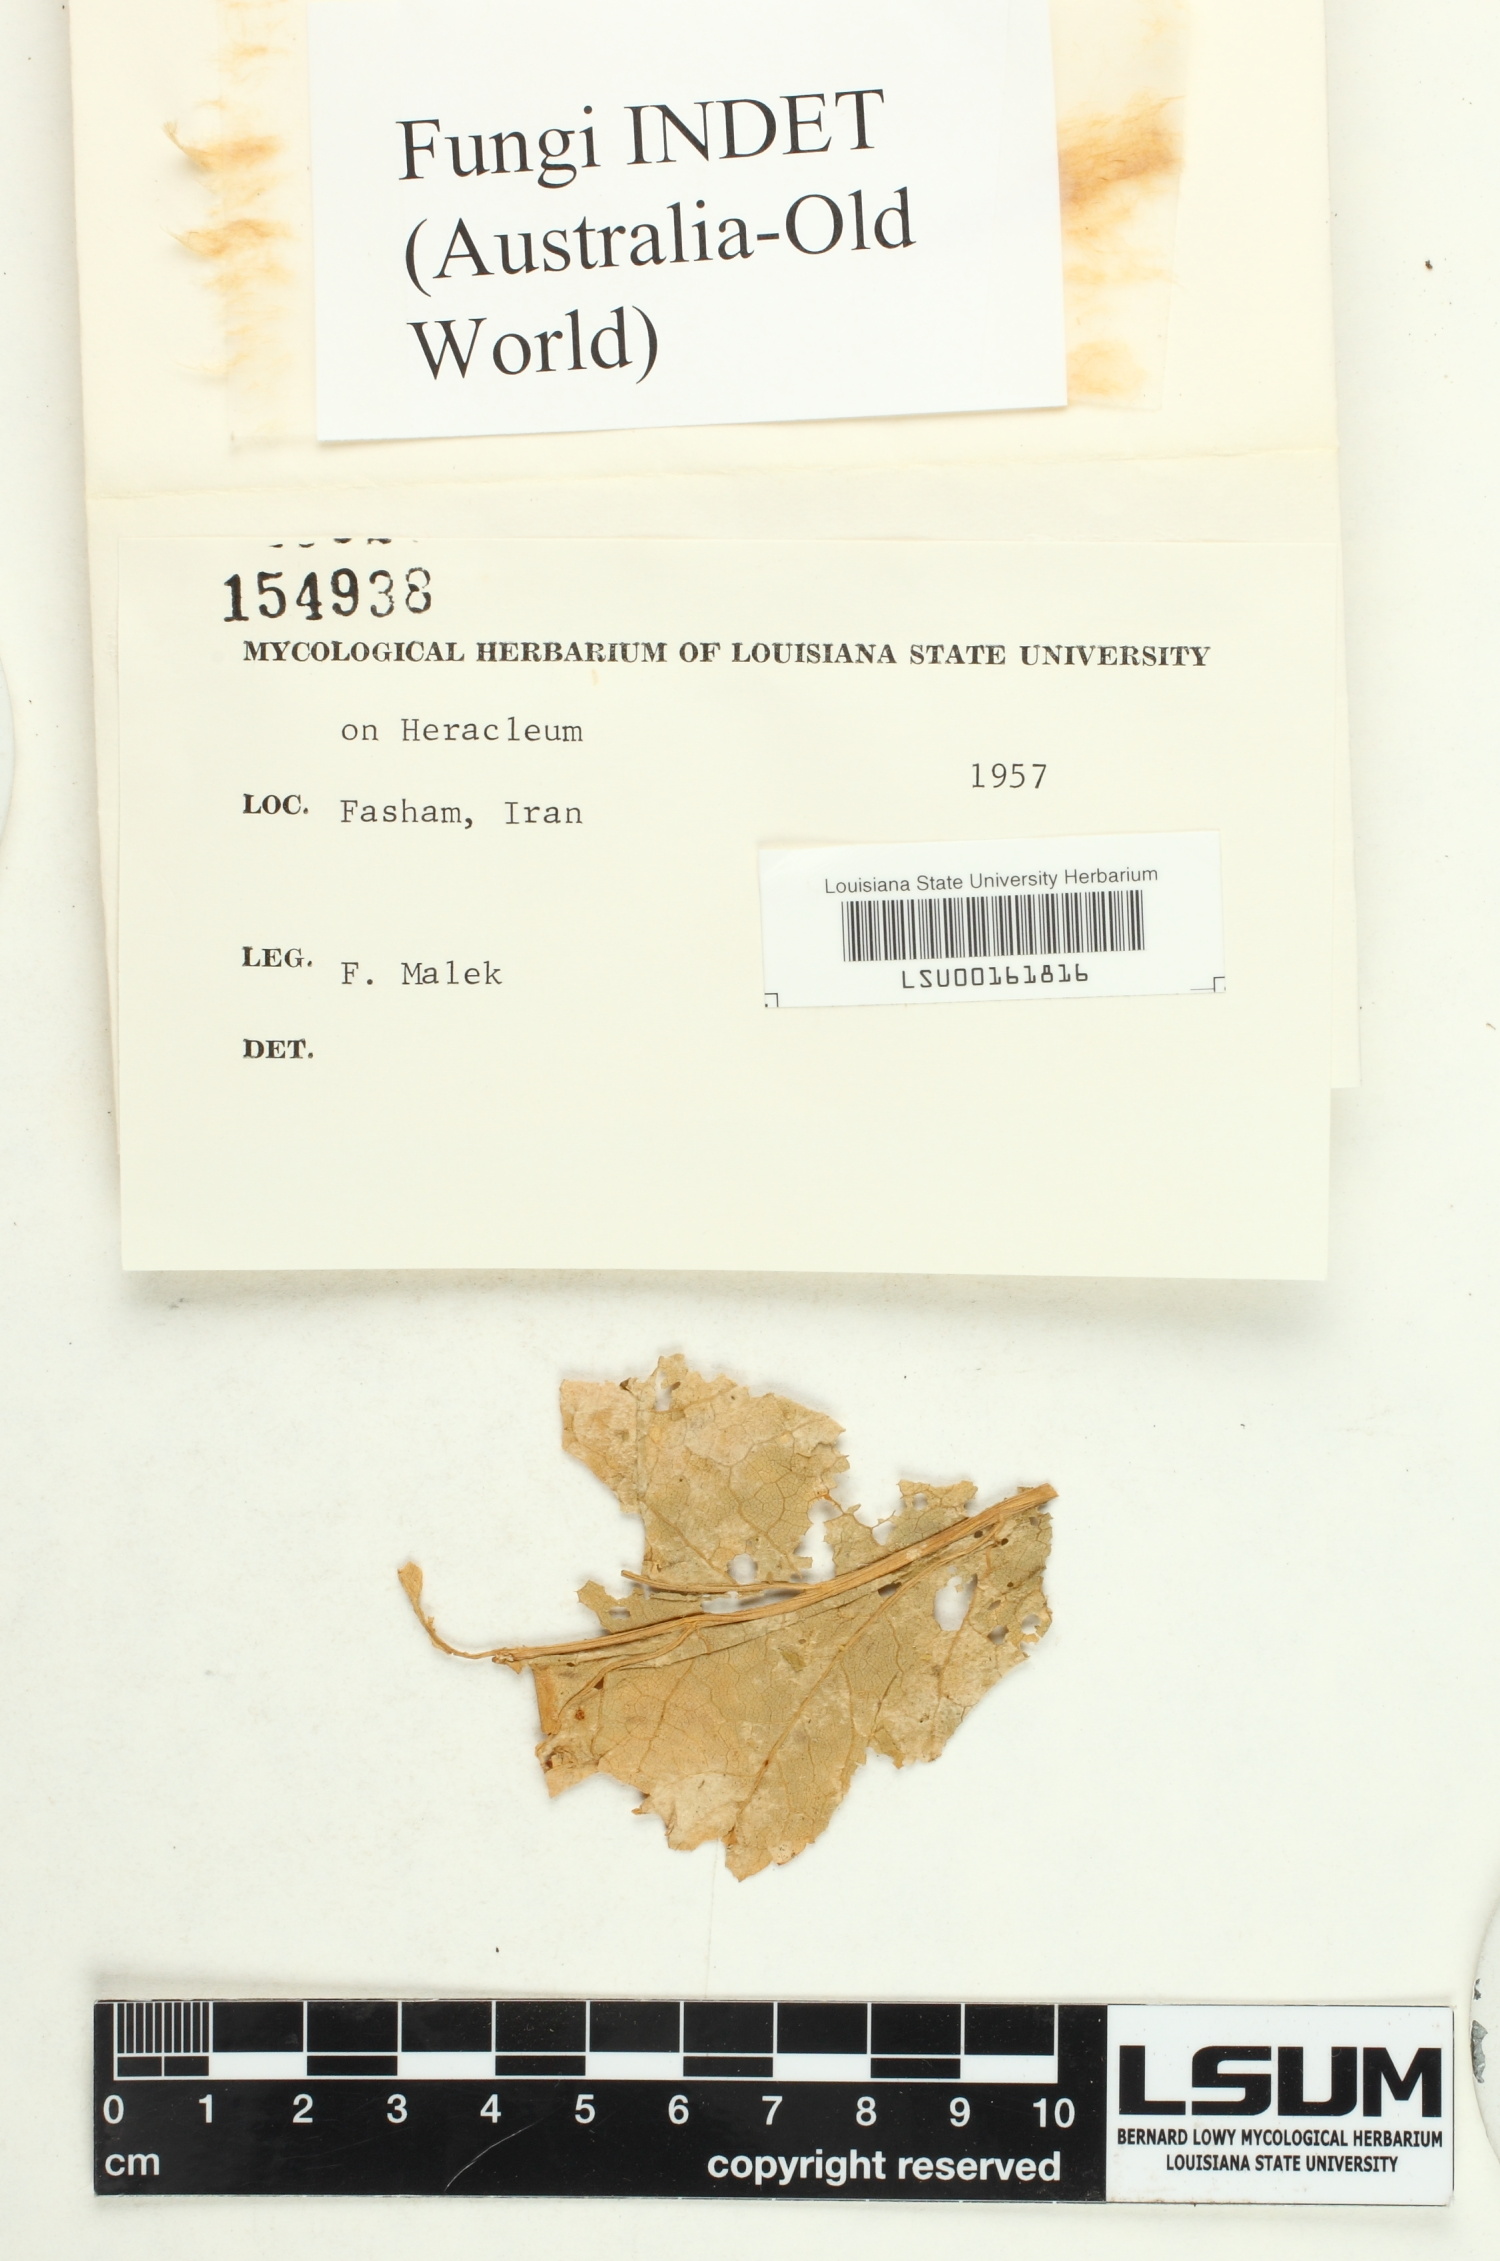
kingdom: Fungi
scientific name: Fungi
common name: Fungi
